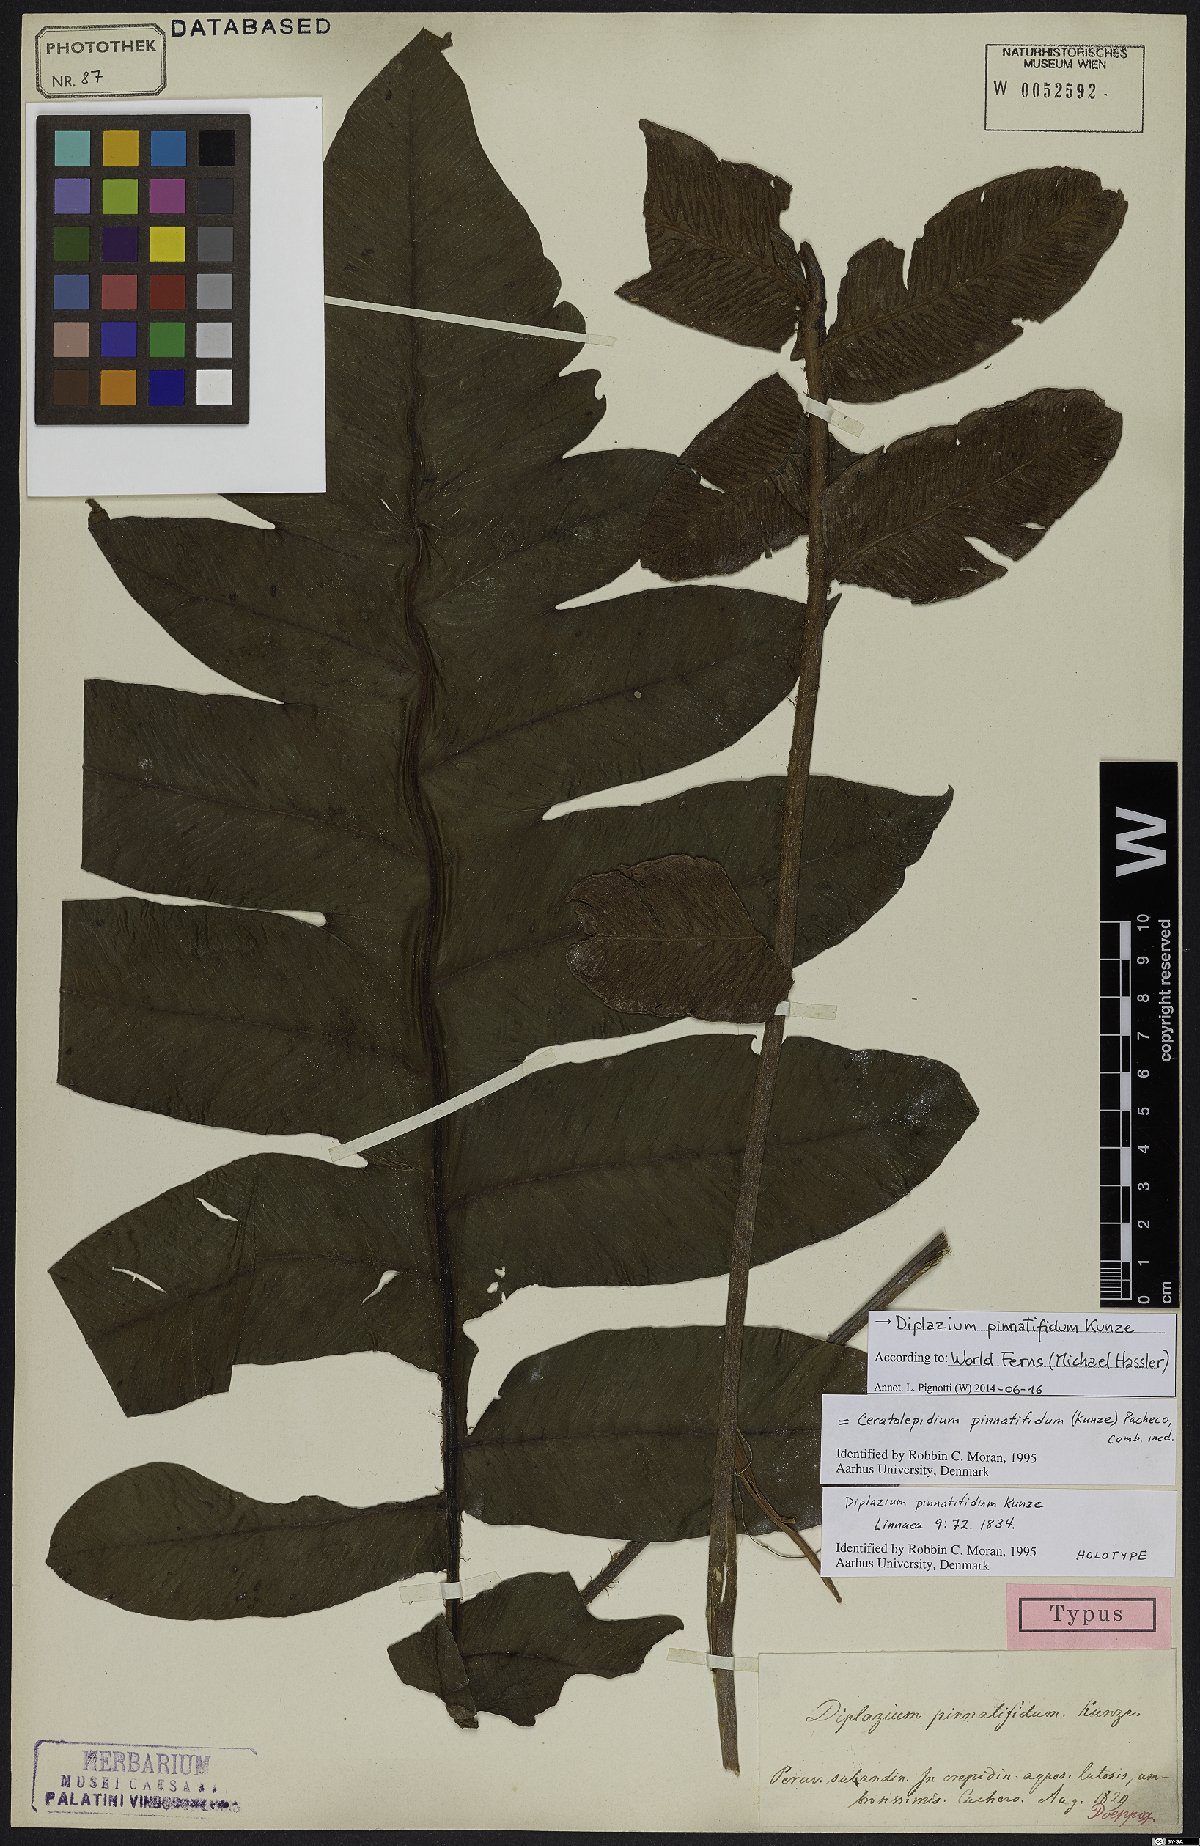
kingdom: Plantae
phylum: Tracheophyta
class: Polypodiopsida
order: Polypodiales
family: Athyriaceae
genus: Diplazium
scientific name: Diplazium pinnatifidum
